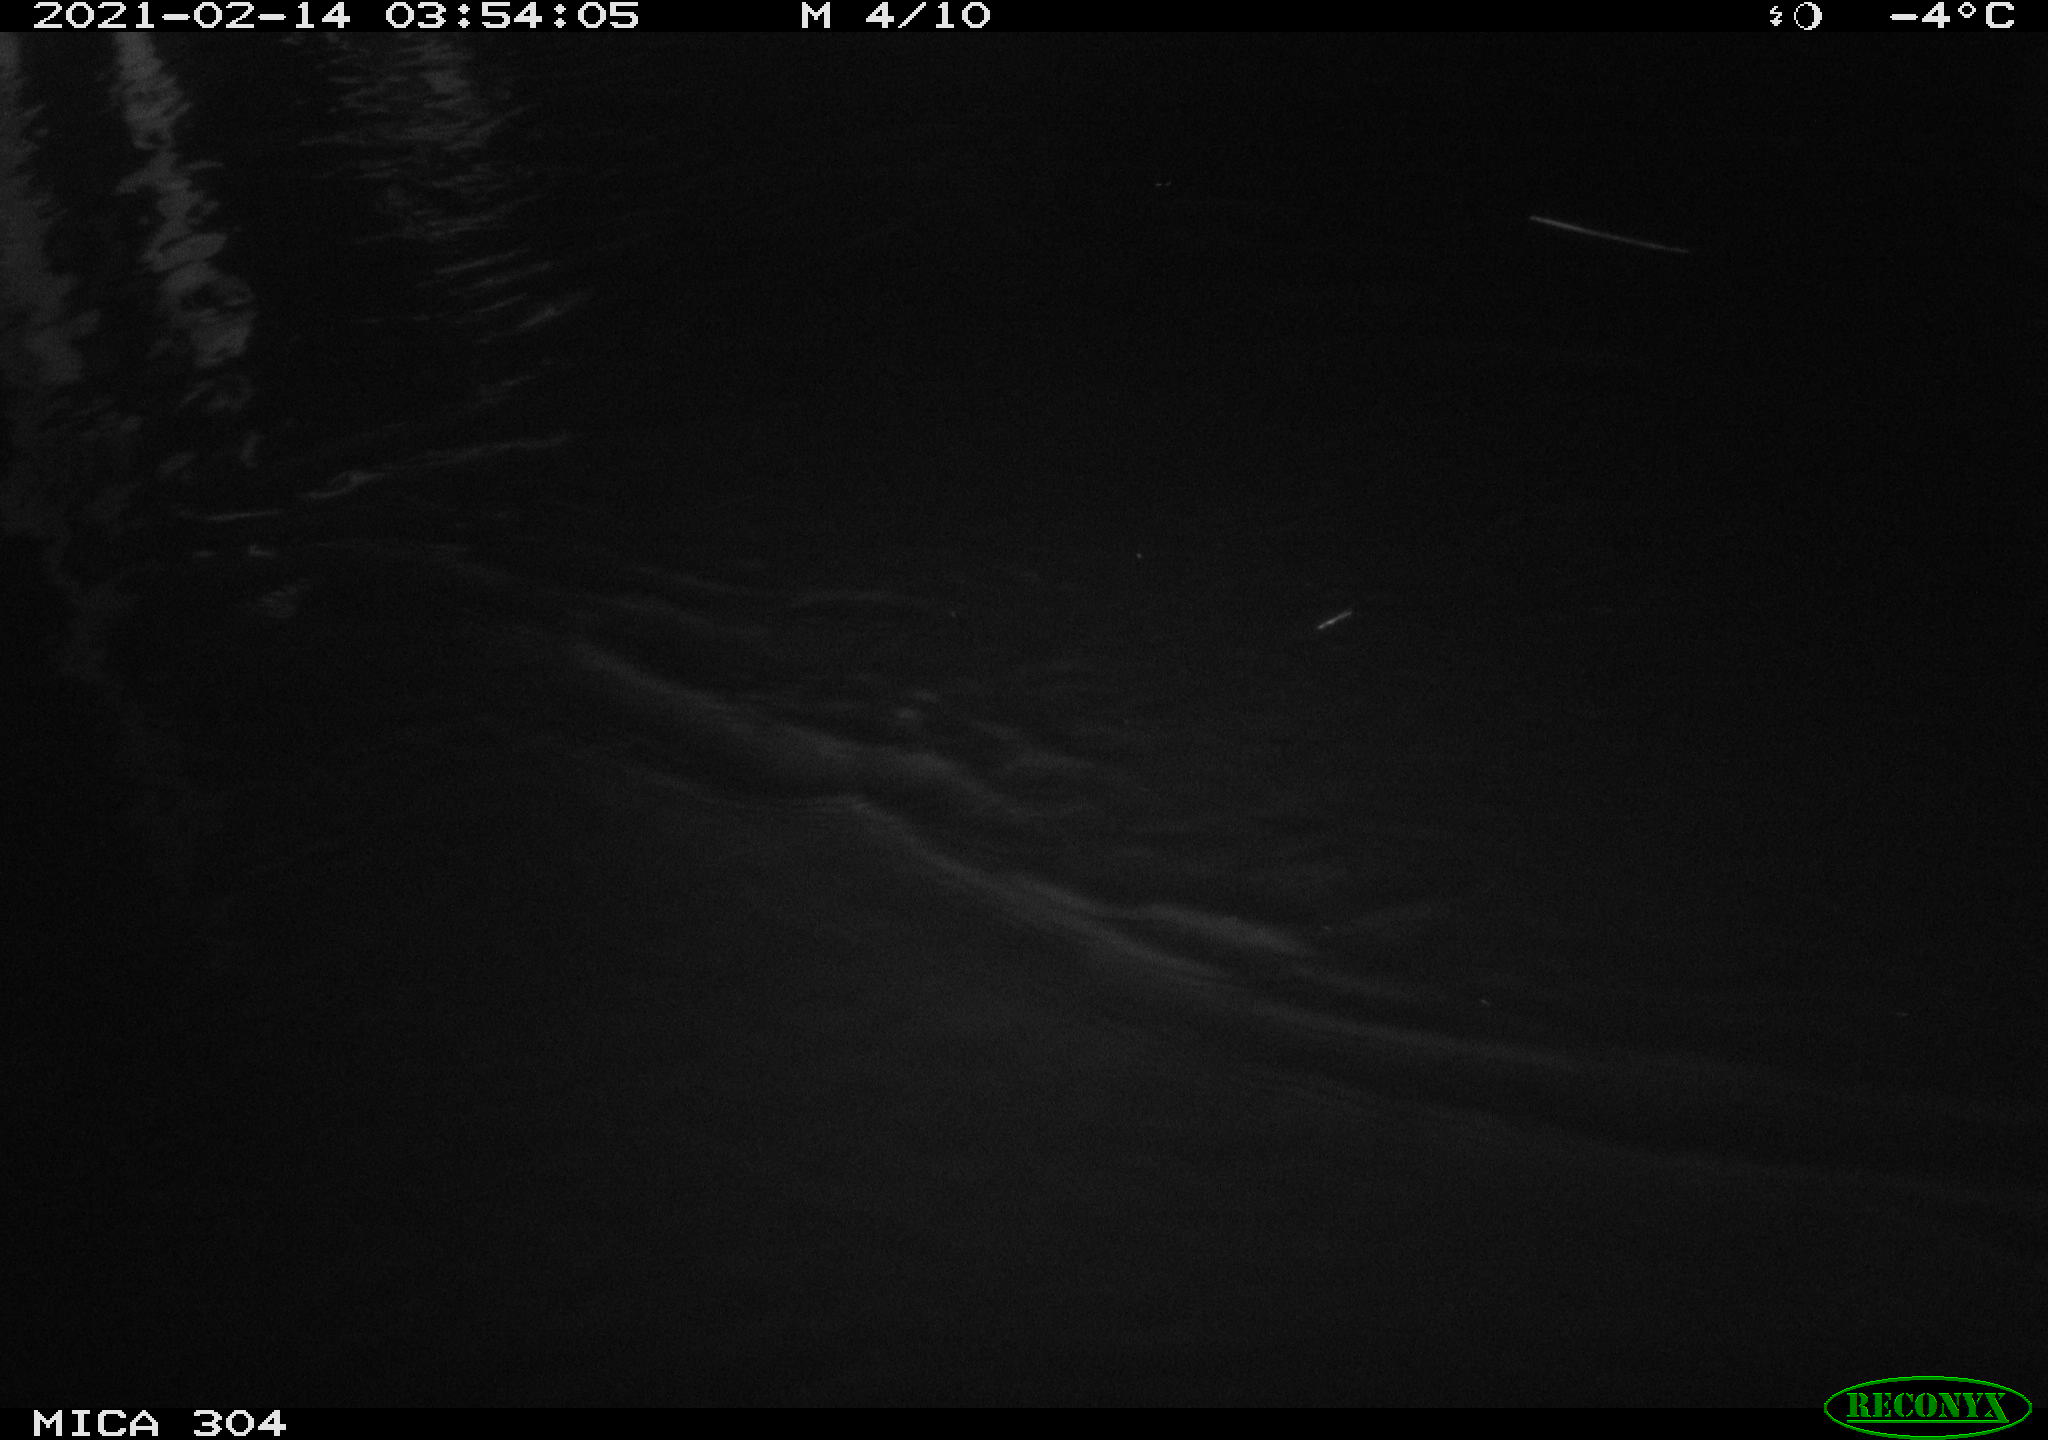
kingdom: Animalia
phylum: Chordata
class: Aves
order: Anseriformes
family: Anatidae
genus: Anas
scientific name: Anas platyrhynchos
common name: Mallard
